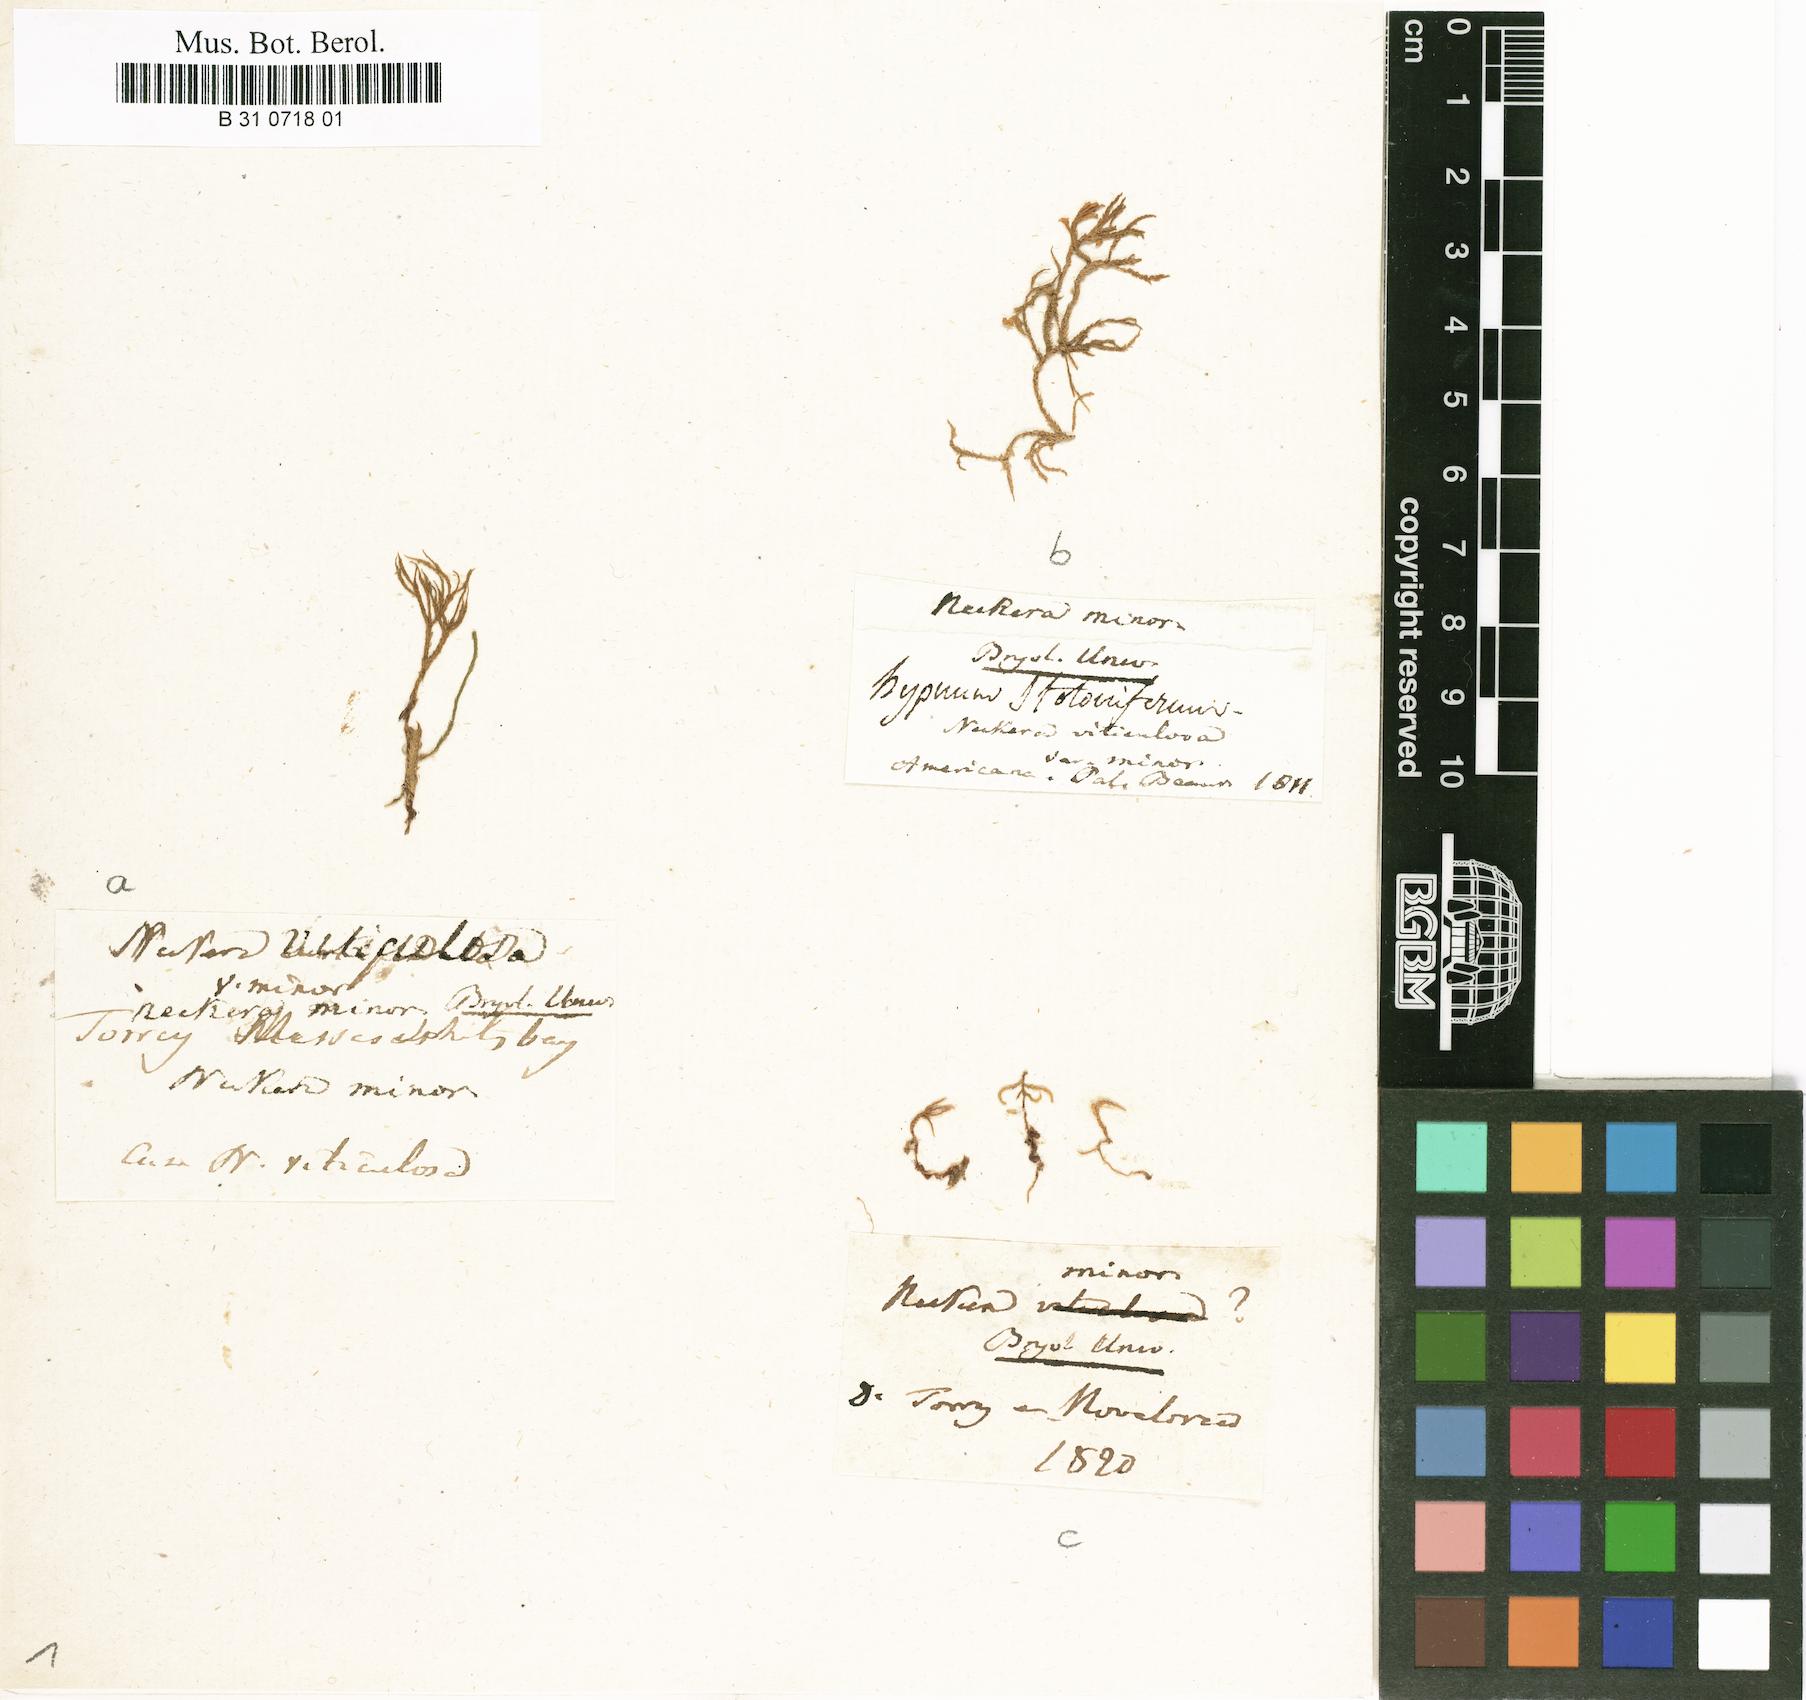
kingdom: Plantae
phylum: Bryophyta
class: Bryopsida
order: Hypnales
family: Anomodontaceae
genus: Anomodon
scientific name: Anomodon minor
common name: Blunt-leaved anomodon
